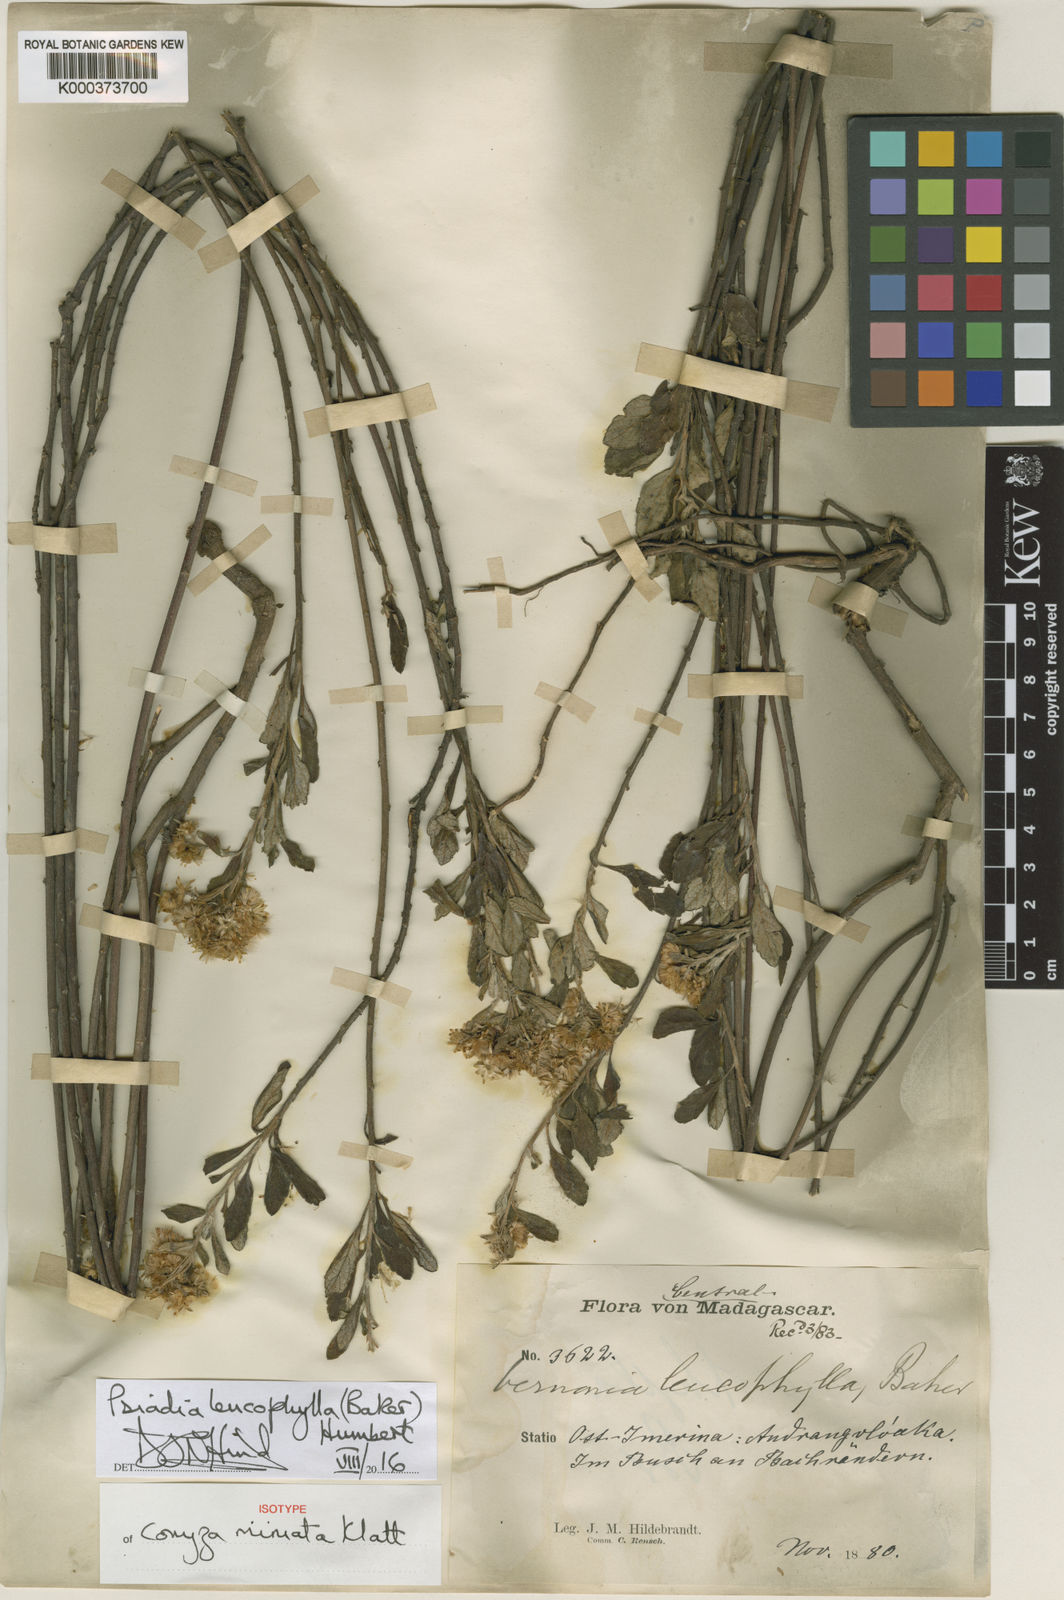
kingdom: Plantae
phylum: Tracheophyta
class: Magnoliopsida
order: Asterales
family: Asteraceae
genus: Psiadia
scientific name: Psiadia leucophylla
